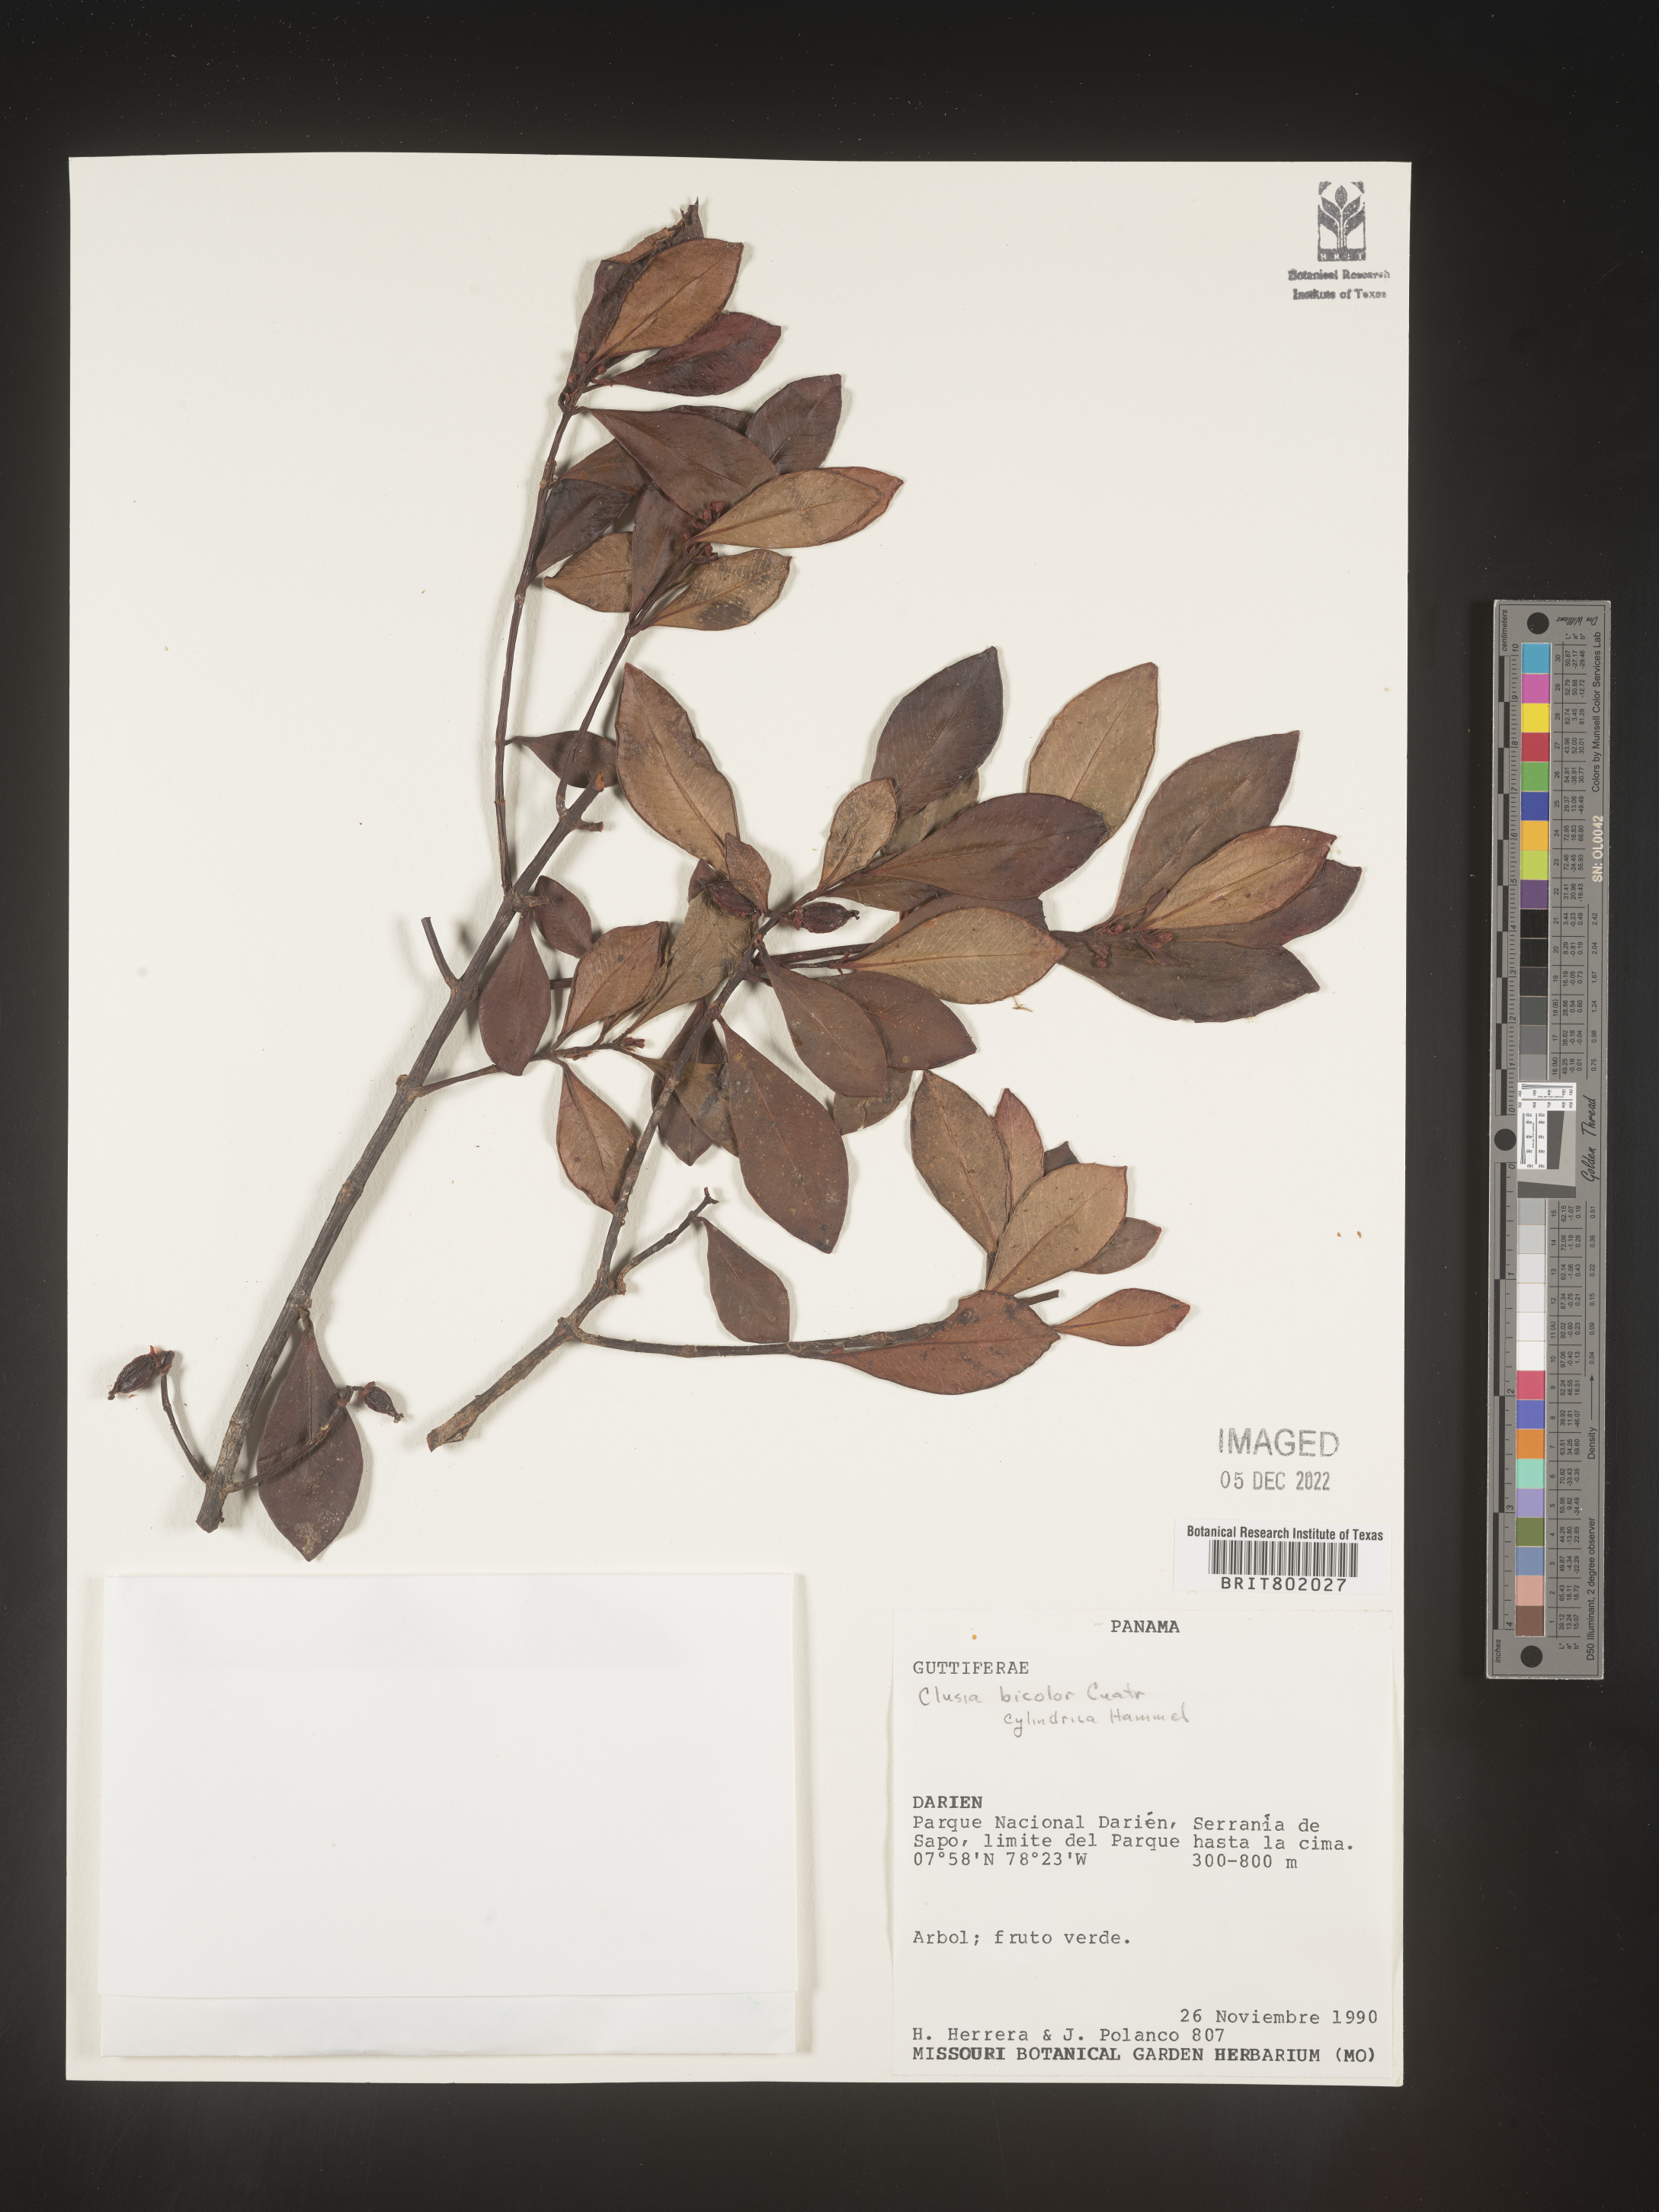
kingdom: Plantae
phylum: Tracheophyta
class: Magnoliopsida
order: Malpighiales
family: Clusiaceae
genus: Clusia
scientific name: Clusia
